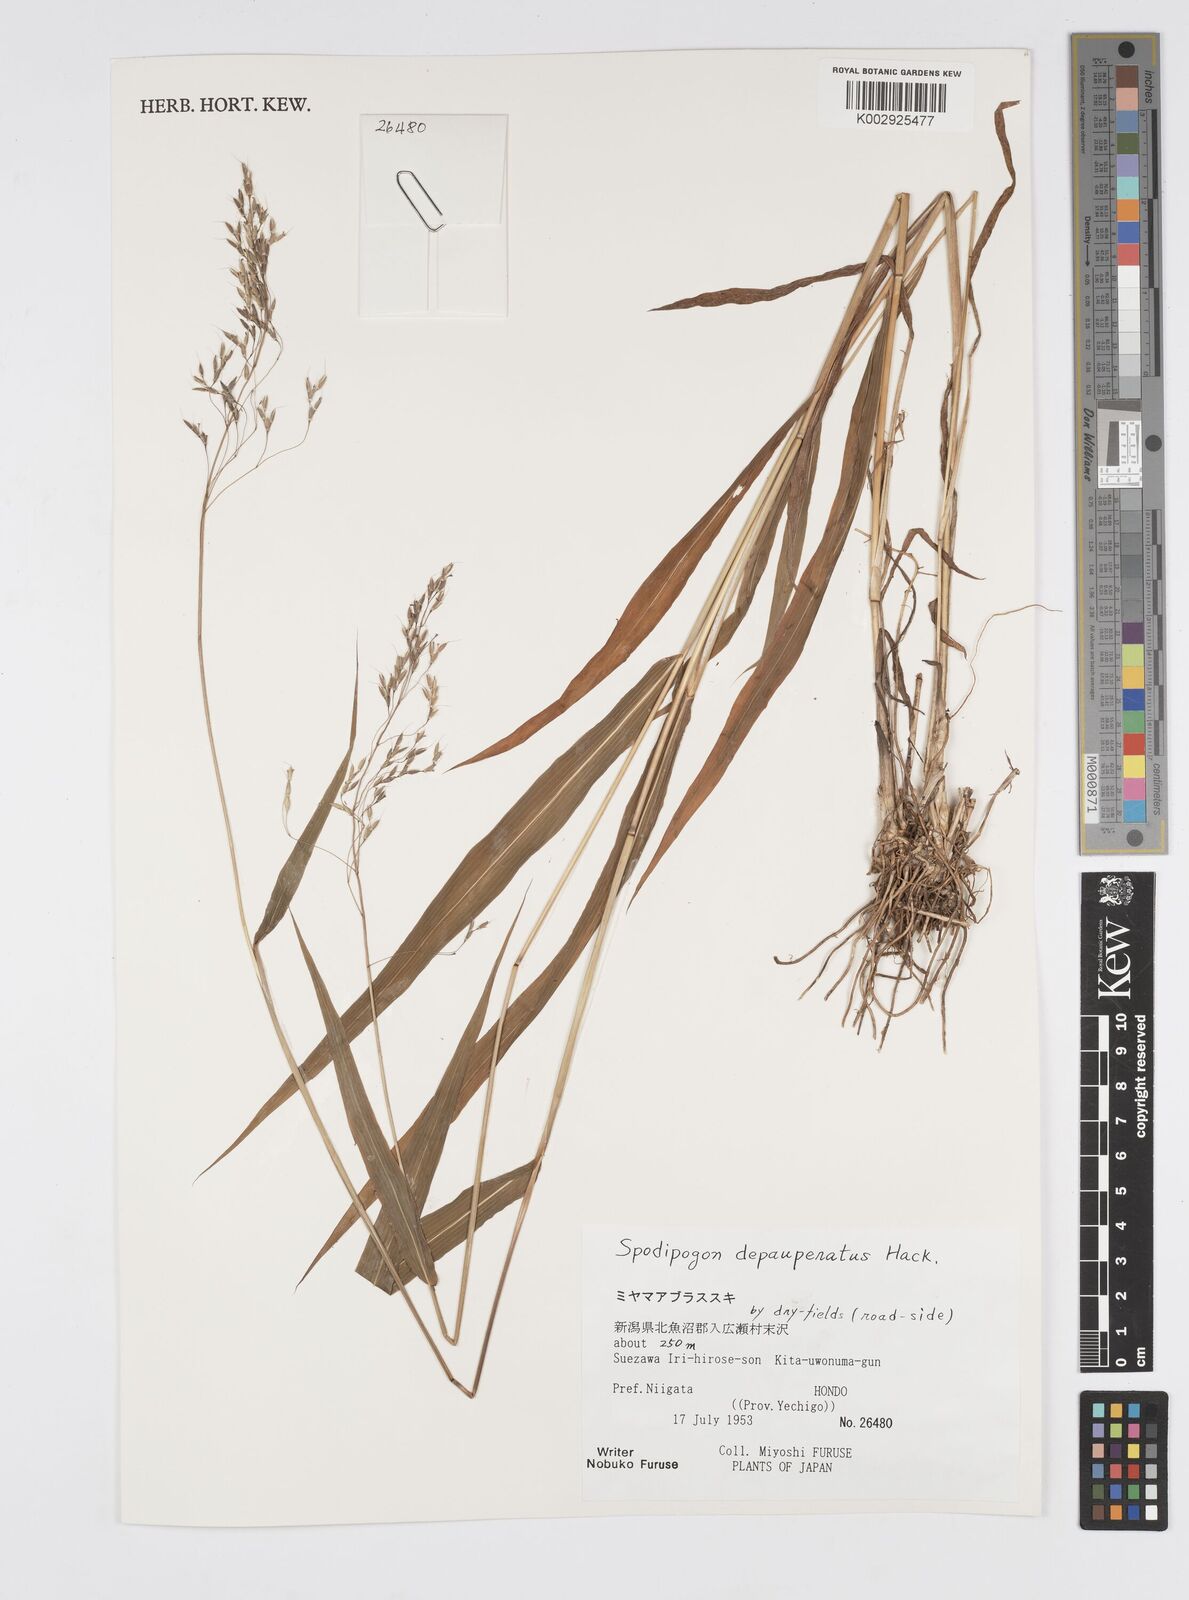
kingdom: Plantae
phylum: Tracheophyta
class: Liliopsida
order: Poales
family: Poaceae
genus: Spodiopogon
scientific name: Spodiopogon depauperatus
